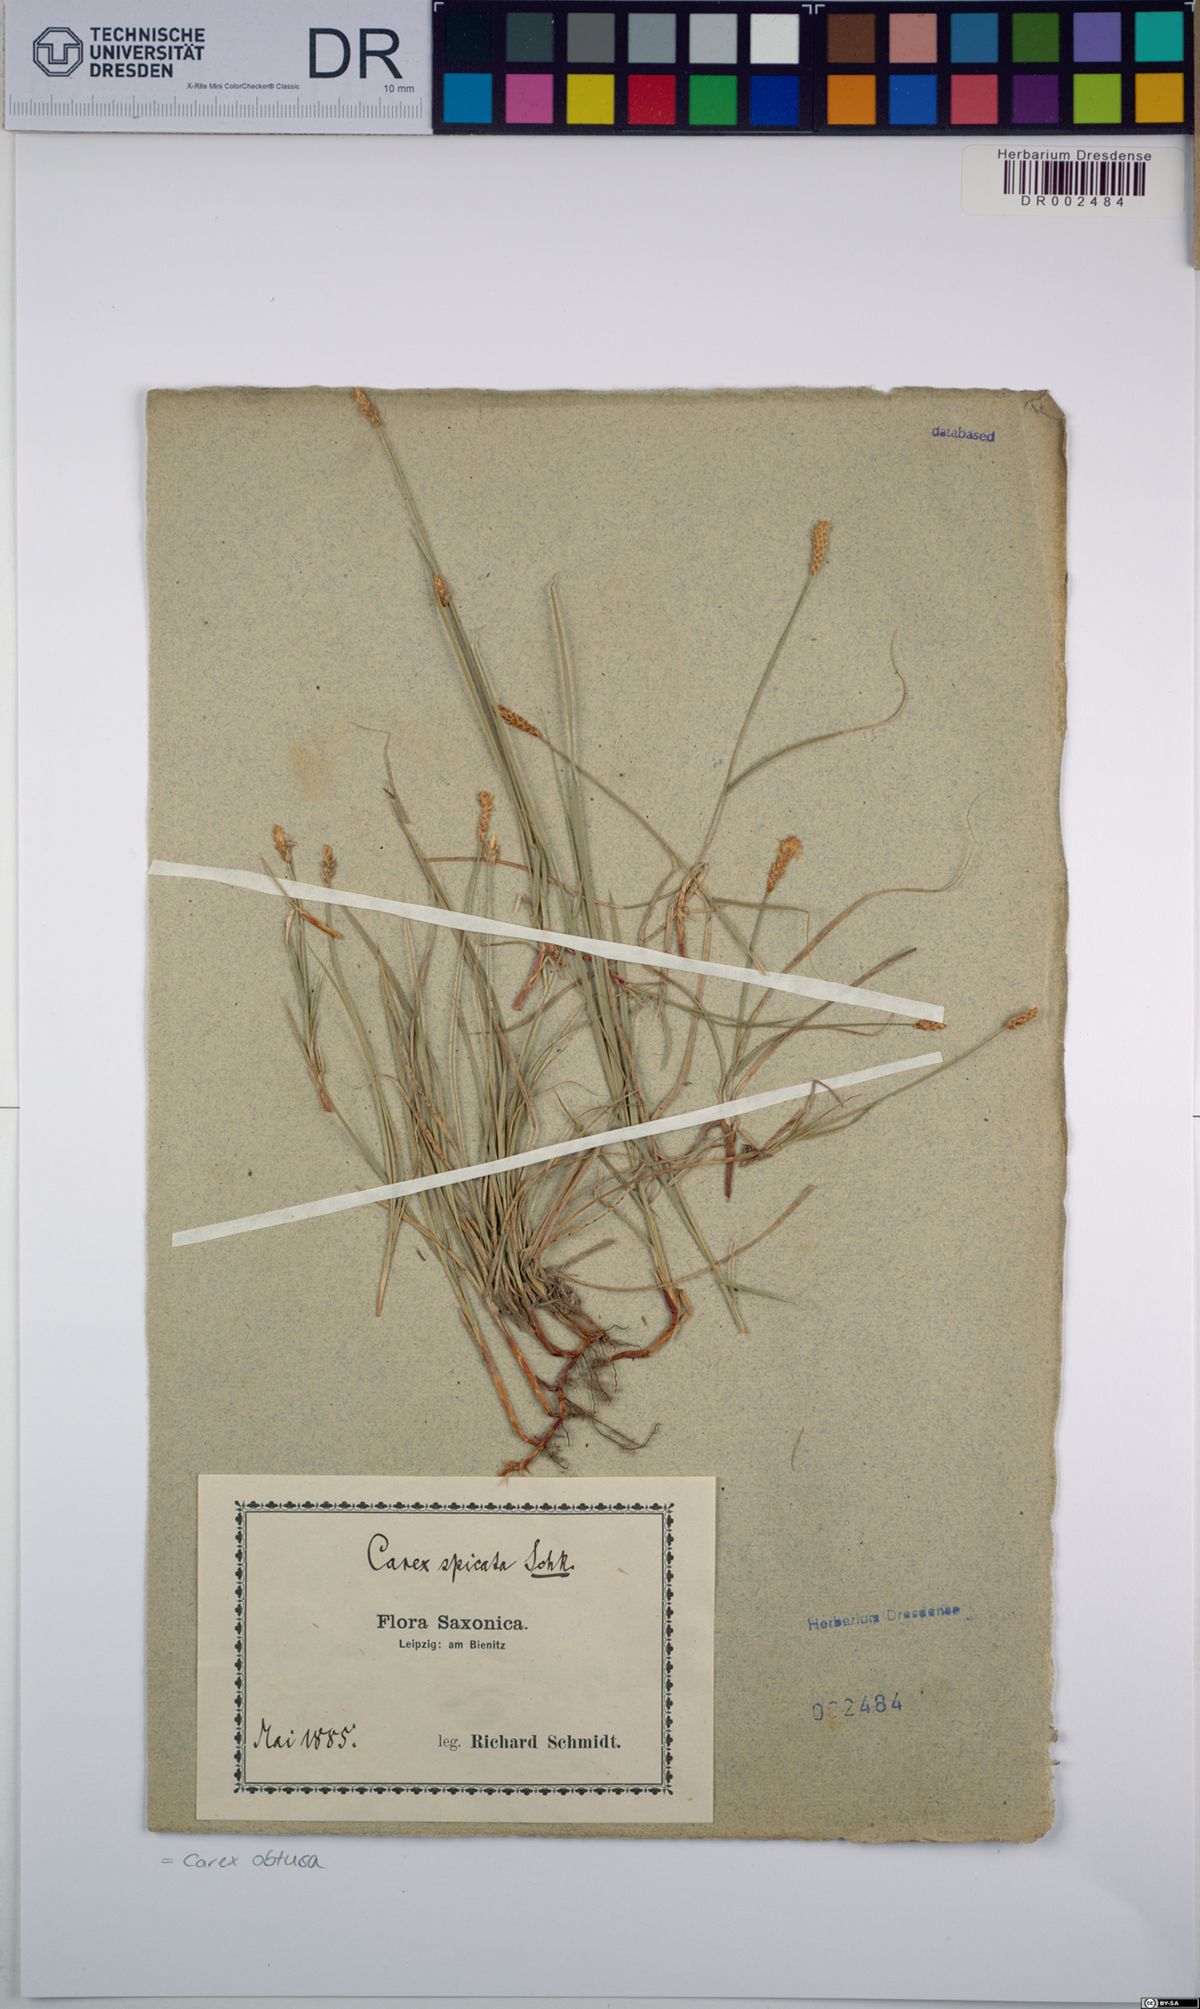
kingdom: Plantae
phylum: Tracheophyta
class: Liliopsida
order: Poales
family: Cyperaceae
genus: Carex
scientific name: Carex obtusata
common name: Blunt sedge
